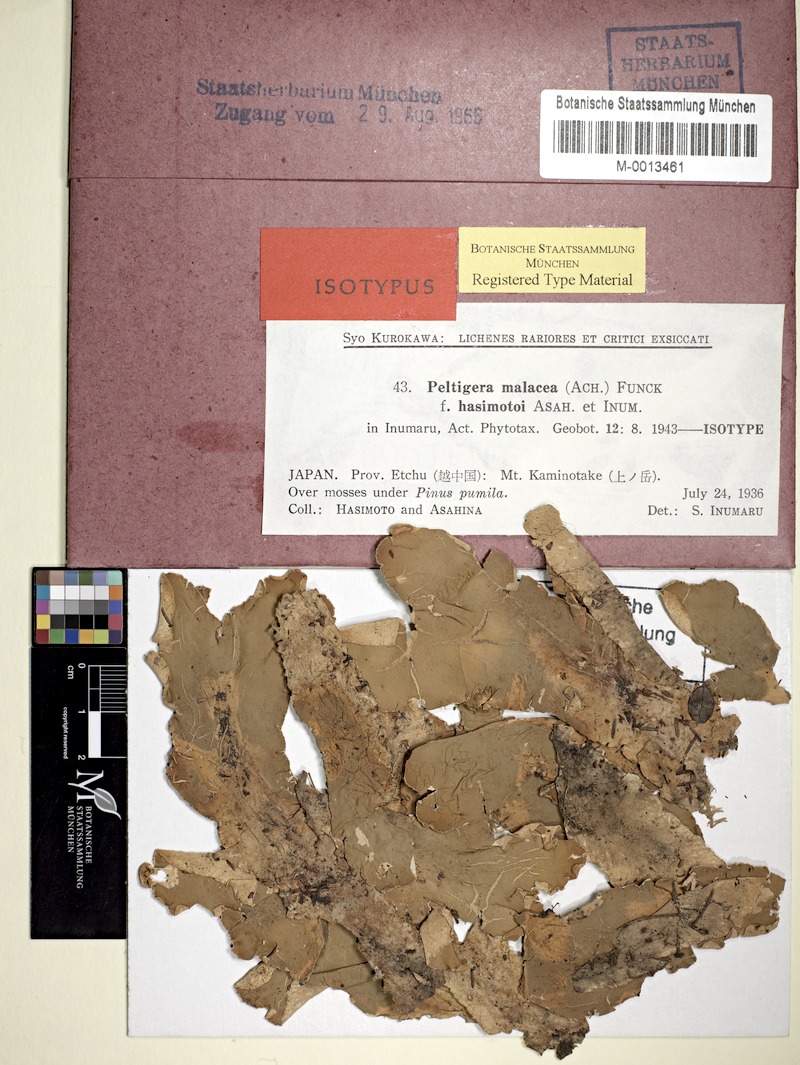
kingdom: Fungi
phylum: Ascomycota
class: Lecanoromycetes
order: Peltigerales
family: Peltigeraceae
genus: Peltigera
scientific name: Peltigera malacea
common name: Matt felt lichen
